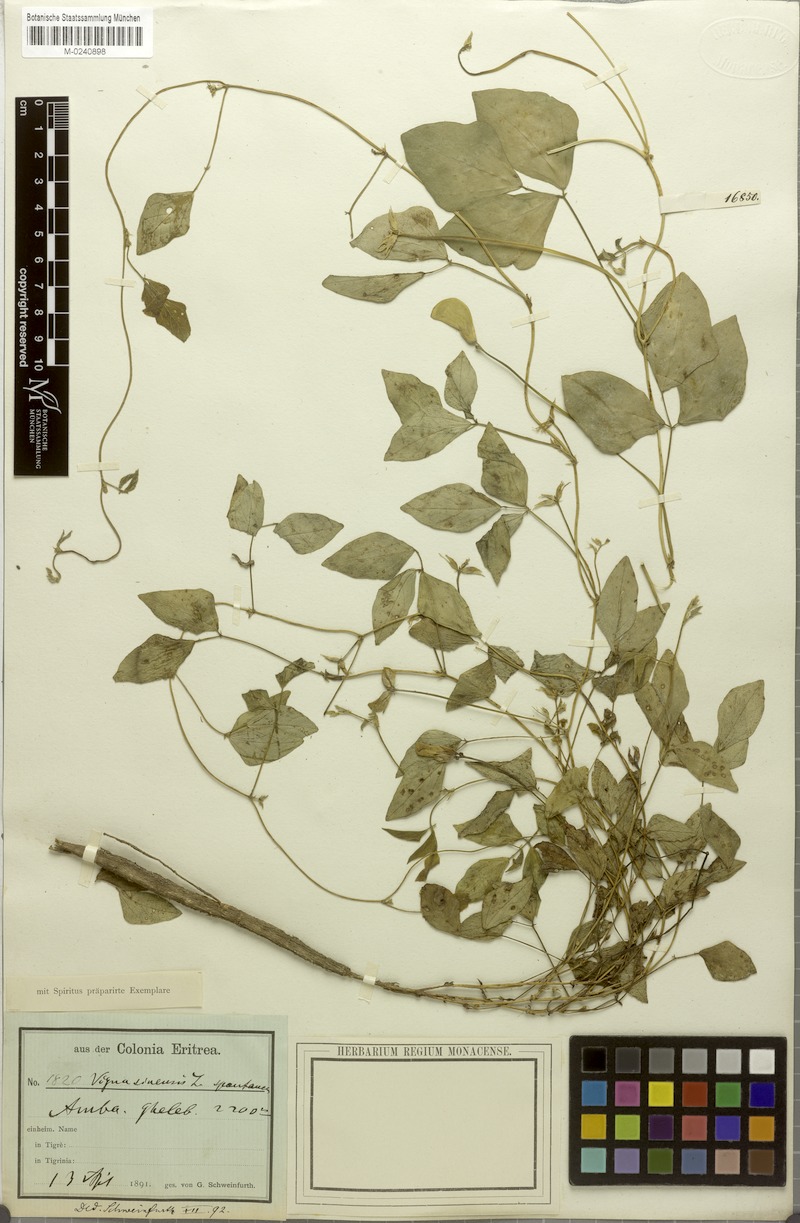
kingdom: Plantae
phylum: Tracheophyta
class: Magnoliopsida
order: Fabales
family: Fabaceae
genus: Vigna
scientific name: Vigna unguiculata
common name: Cowpea
